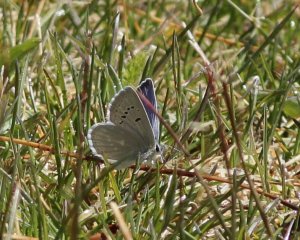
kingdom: Animalia
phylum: Arthropoda
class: Insecta
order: Lepidoptera
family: Lycaenidae
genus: Icaricia
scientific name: Icaricia icarioides
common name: Boisduval's Blue
